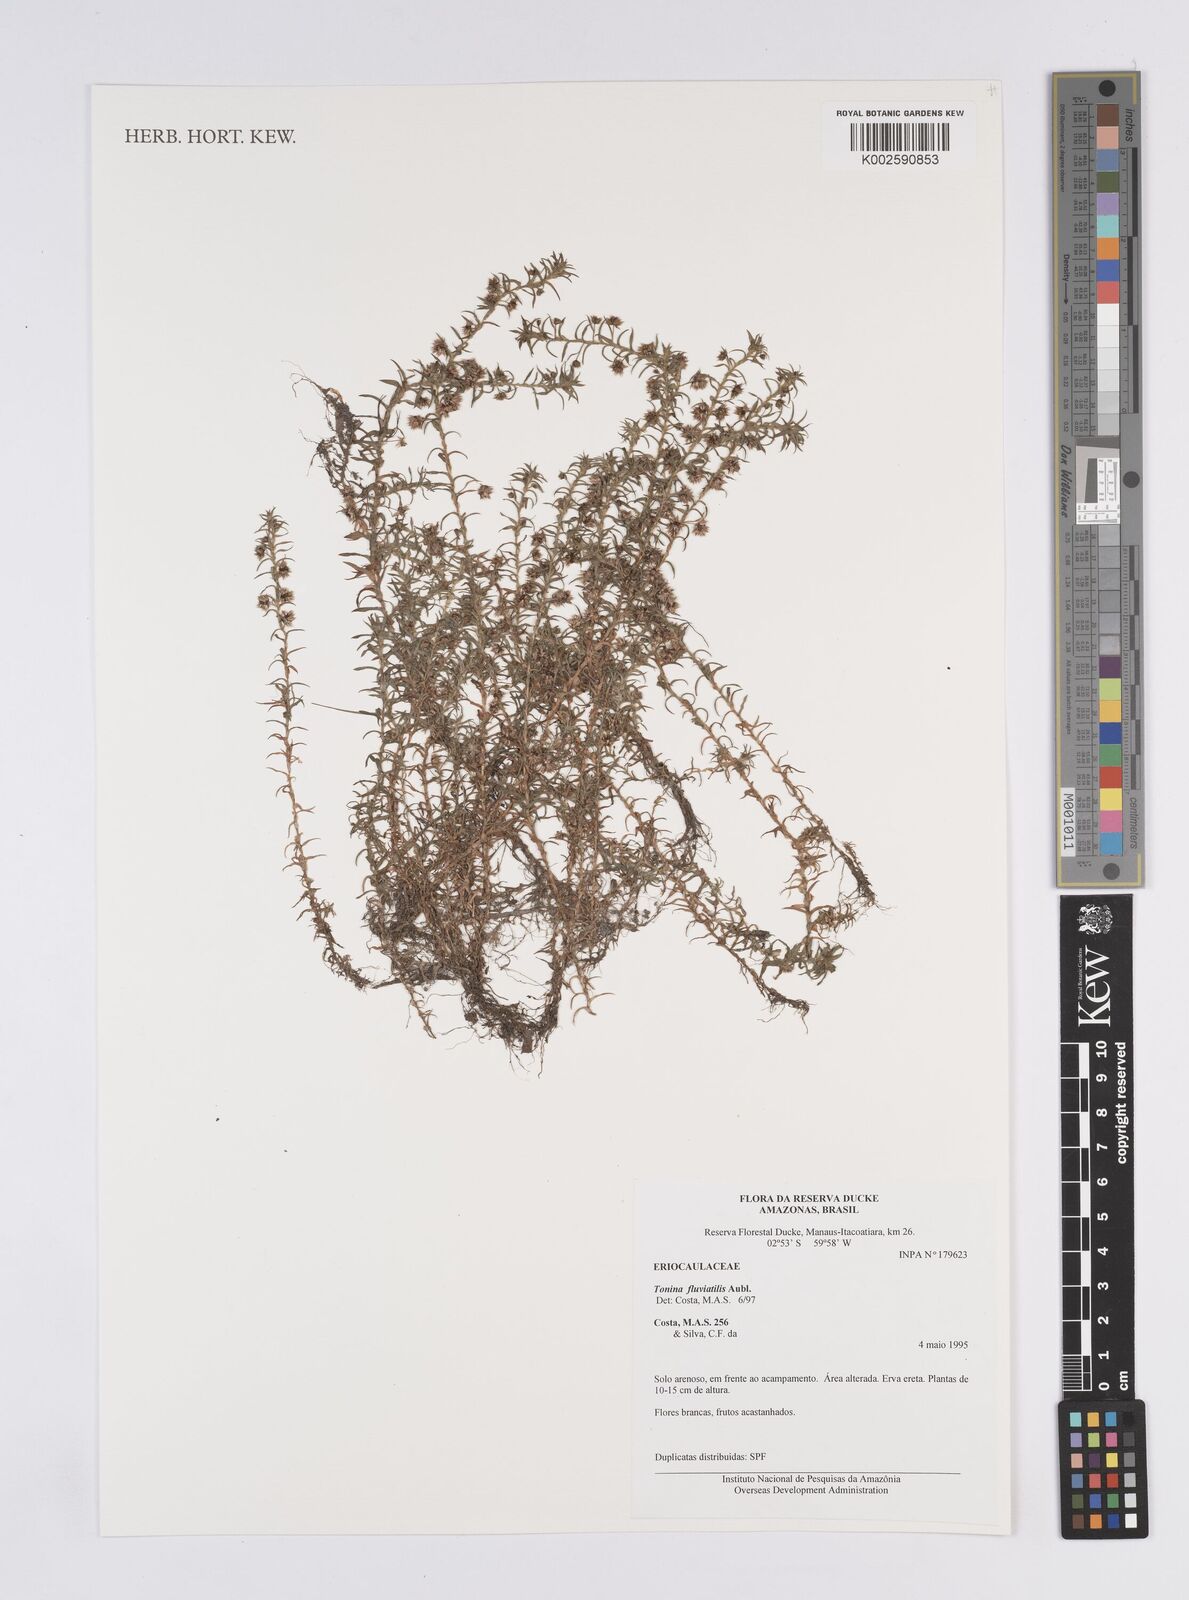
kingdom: Plantae
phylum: Tracheophyta
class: Liliopsida
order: Poales
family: Eriocaulaceae
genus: Paepalanthus
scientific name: Paepalanthus fluviatilis
